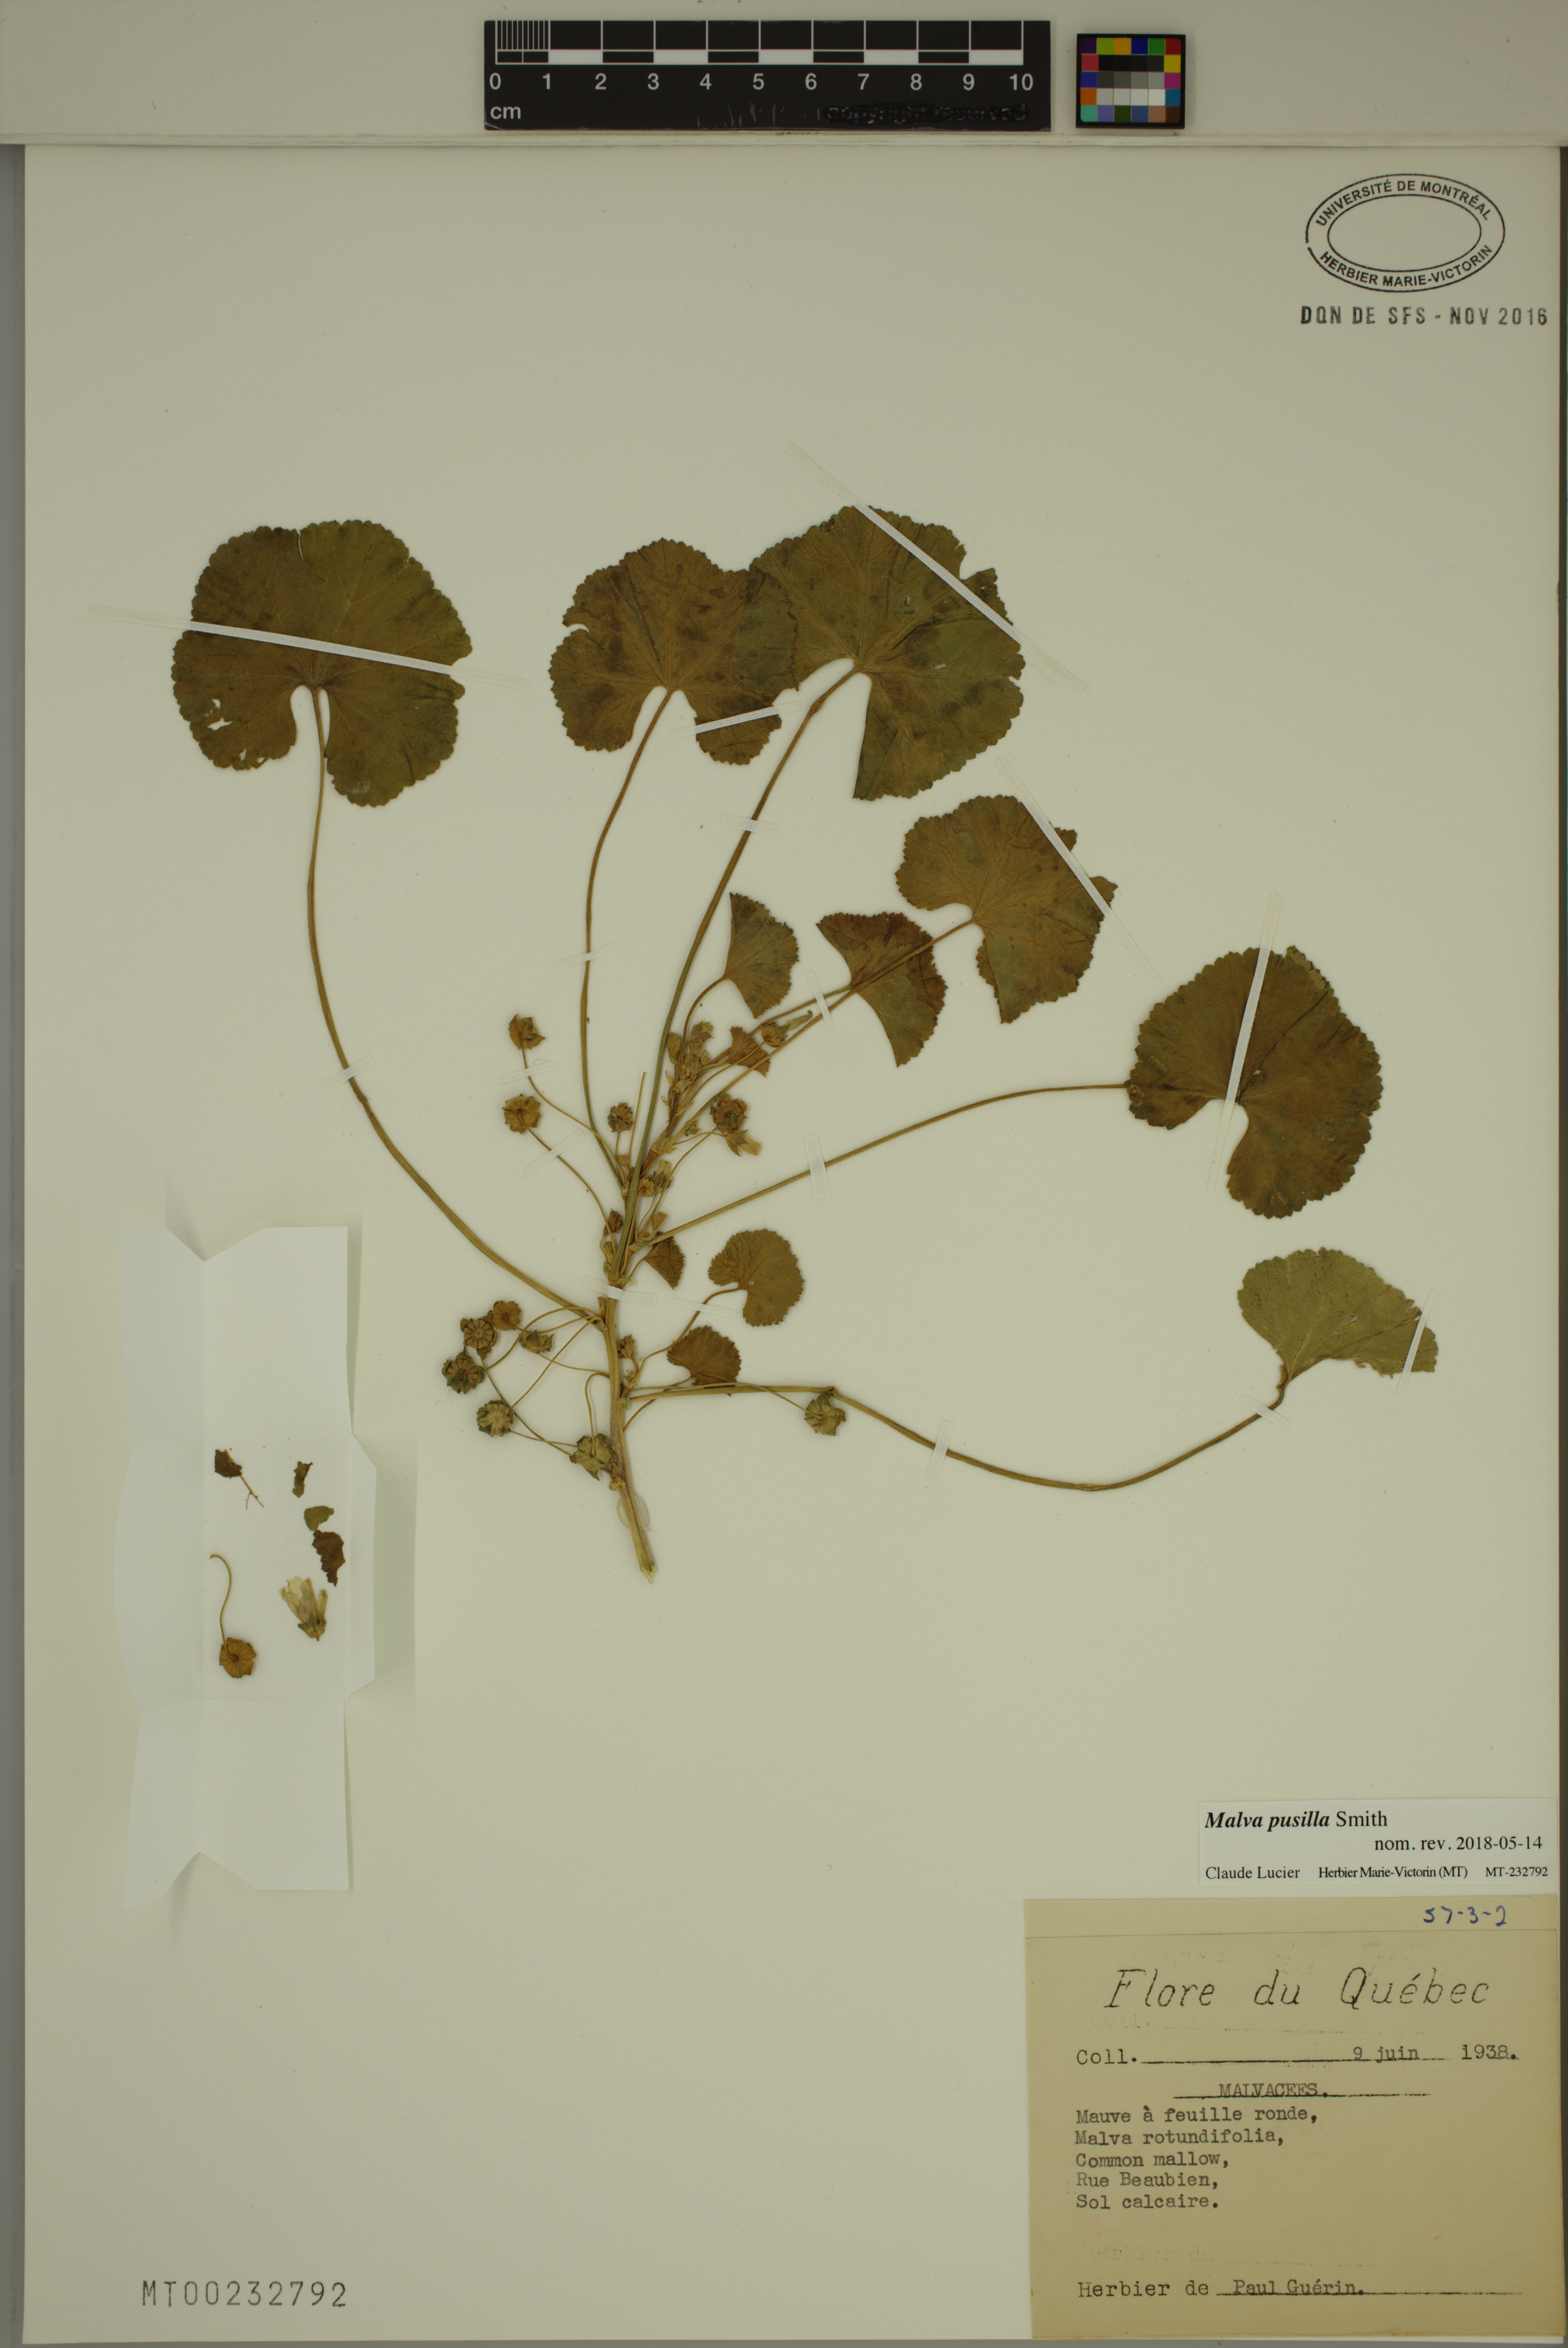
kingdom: Plantae
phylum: Tracheophyta
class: Magnoliopsida
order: Malvales
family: Malvaceae
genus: Malva
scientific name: Malva pusilla
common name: Small mallow
